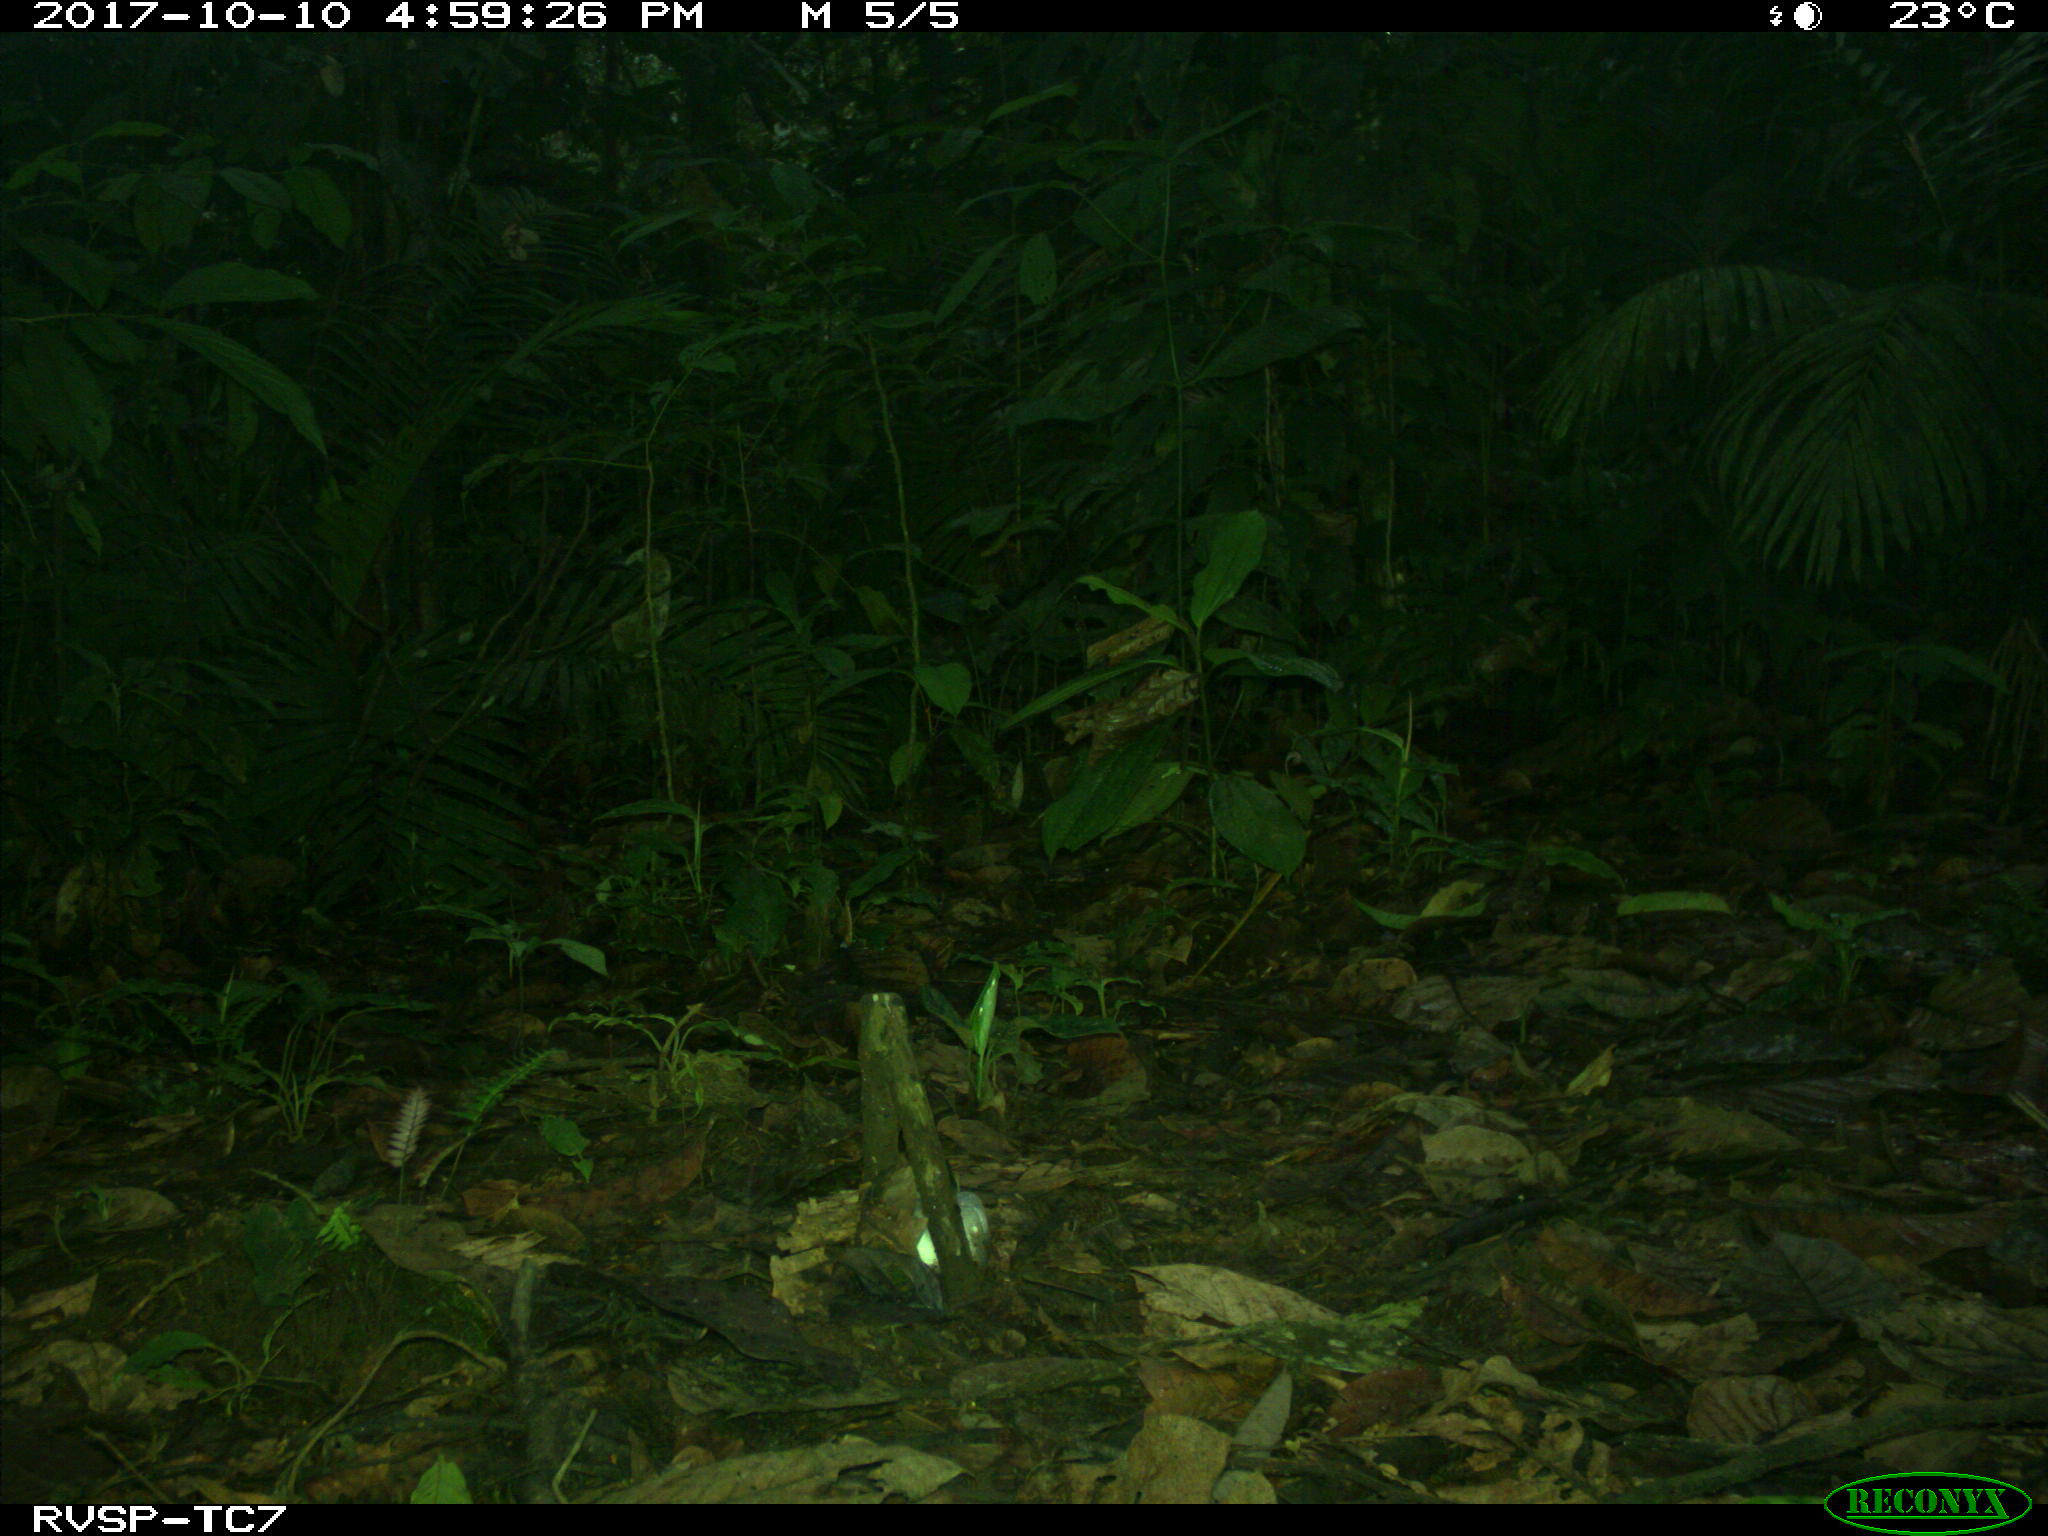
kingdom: Animalia
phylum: Chordata
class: Mammalia
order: Rodentia
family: Dasyproctidae
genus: Dasyprocta
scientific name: Dasyprocta punctata
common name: Central american agouti
